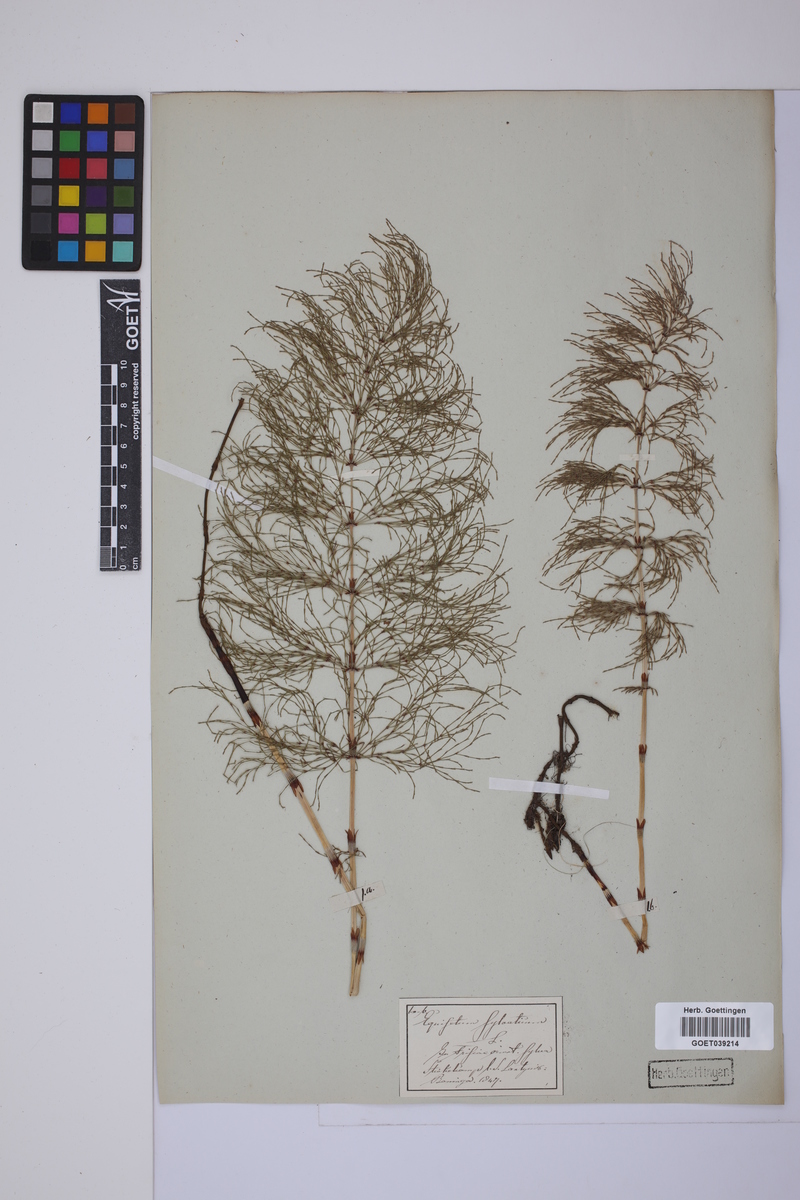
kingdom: Plantae
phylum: Tracheophyta
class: Polypodiopsida
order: Equisetales
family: Equisetaceae
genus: Equisetum
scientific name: Equisetum sylvaticum
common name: Wood horsetail
